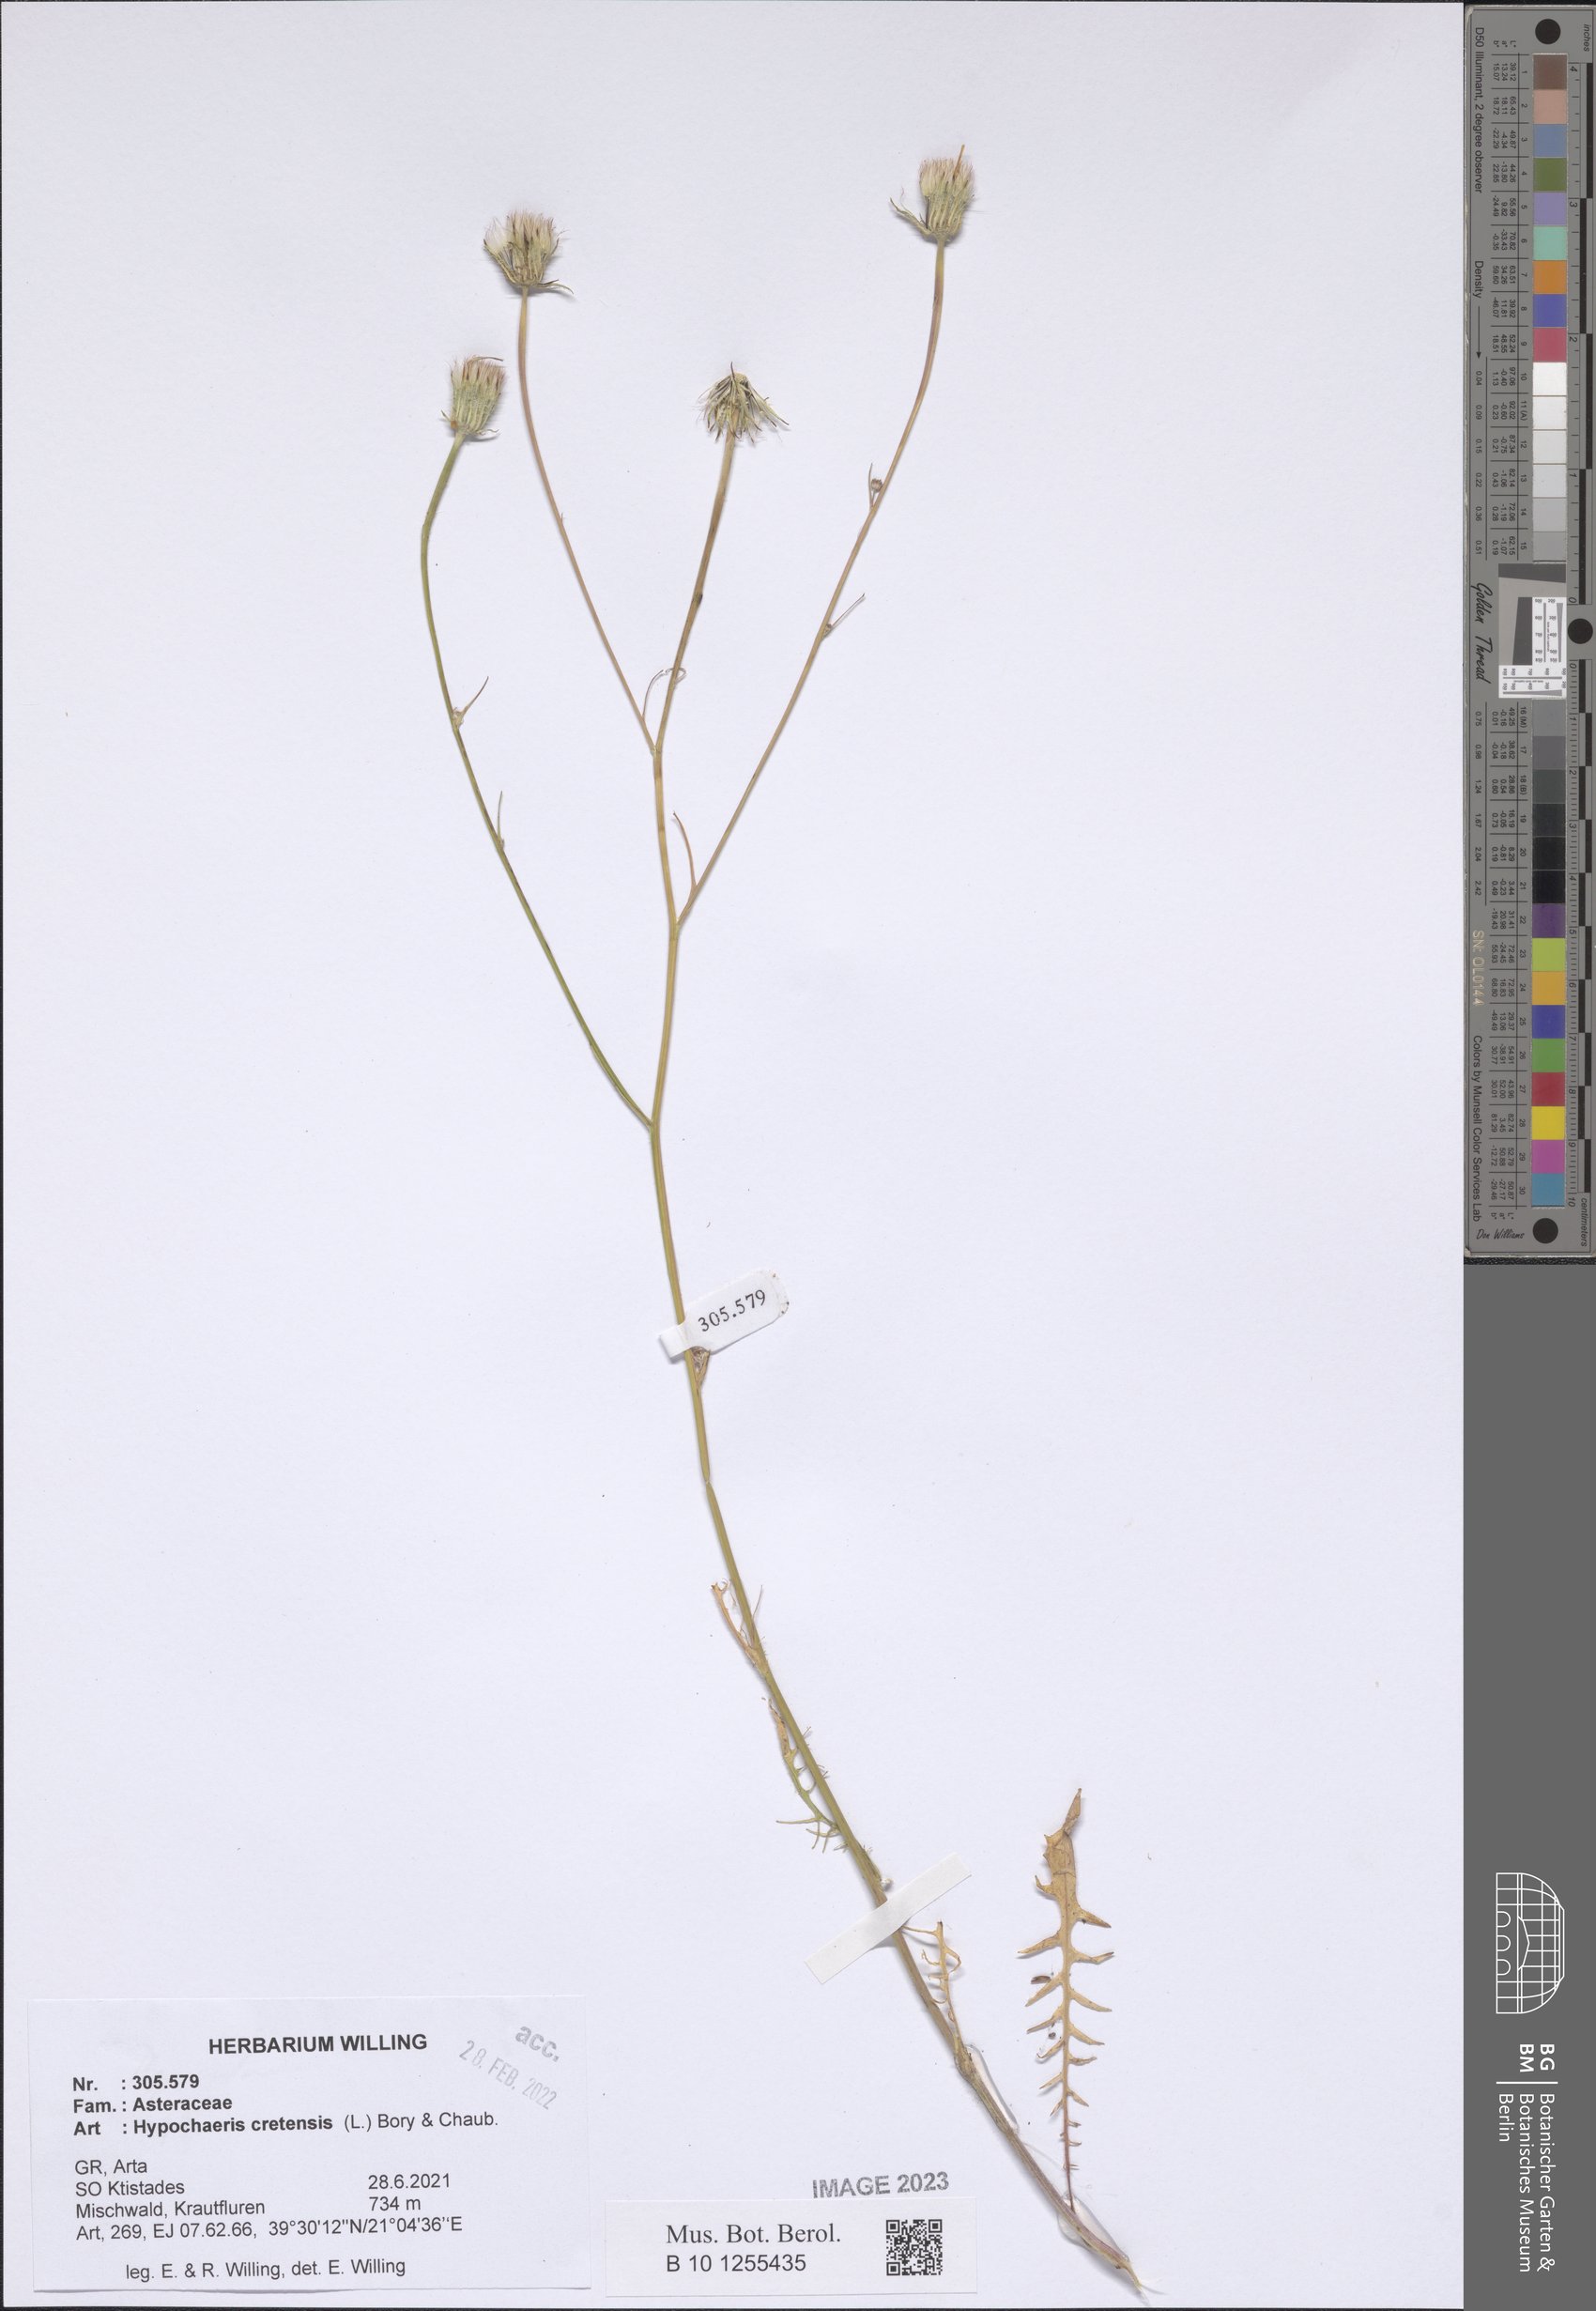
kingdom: Plantae
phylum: Tracheophyta
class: Magnoliopsida
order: Asterales
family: Asteraceae
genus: Hypochaeris
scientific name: Hypochaeris cretensis
